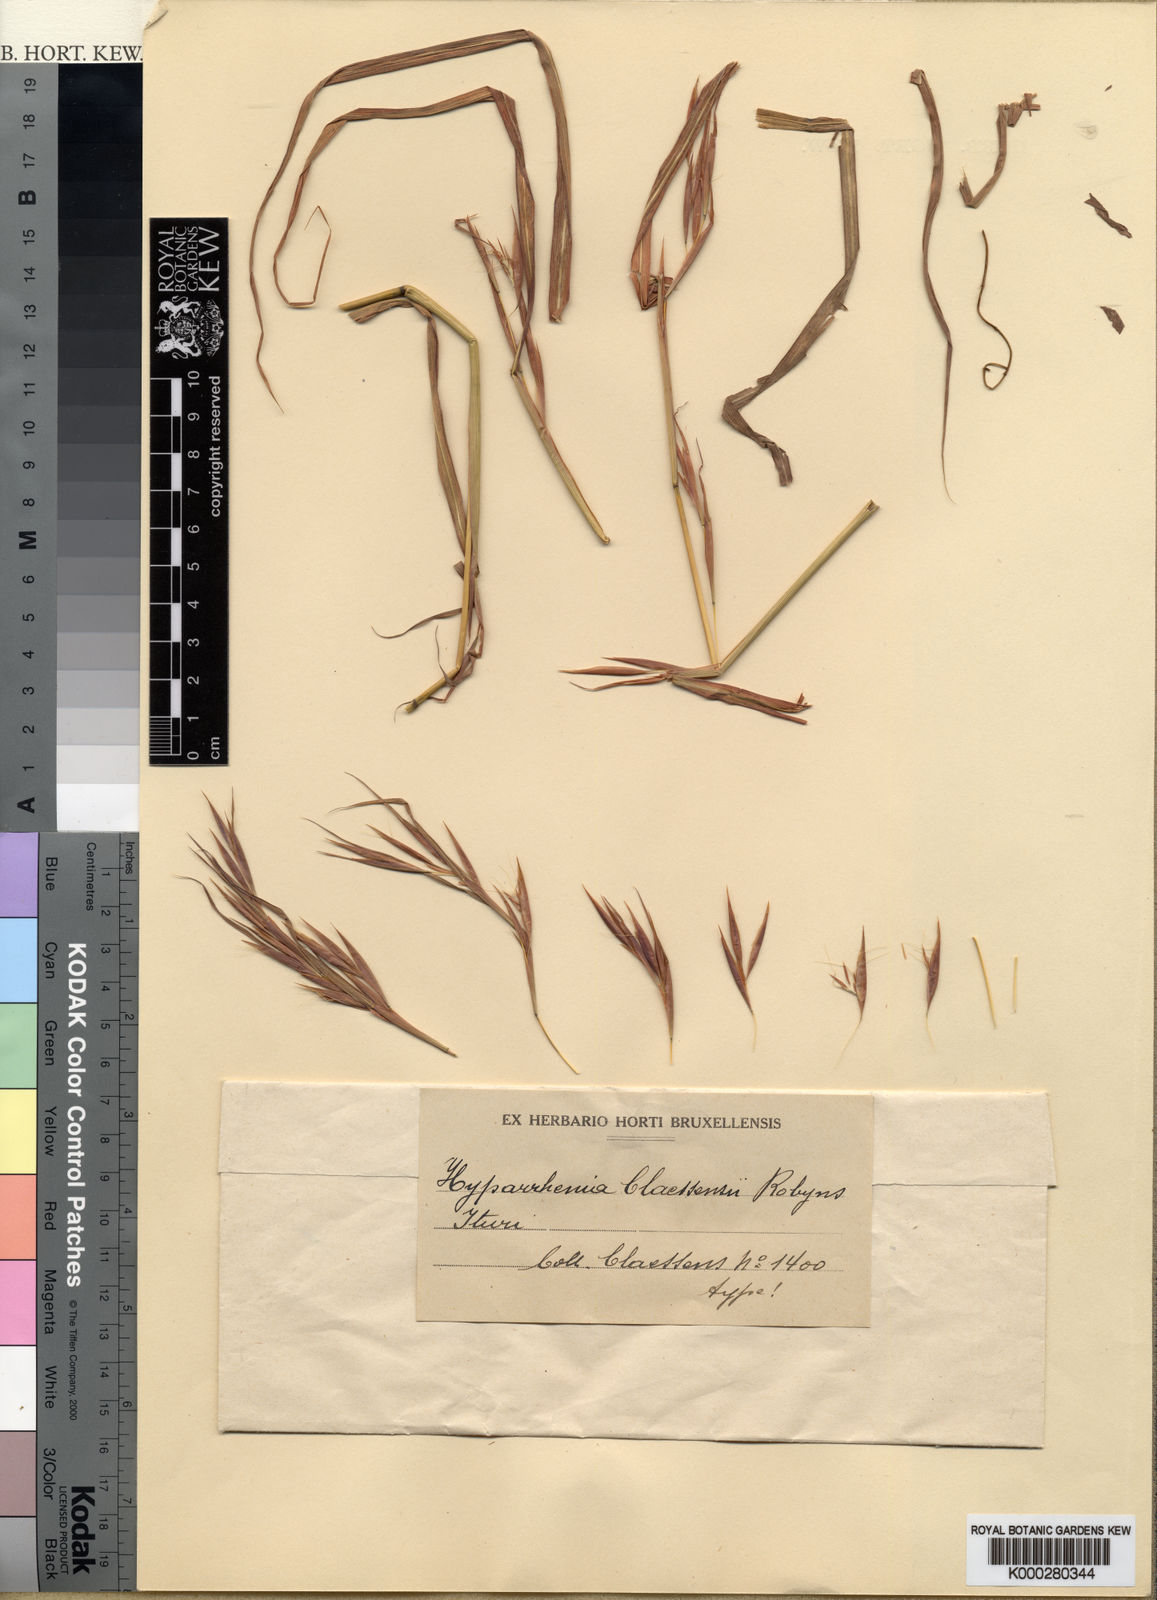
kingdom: Plantae
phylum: Tracheophyta
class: Liliopsida
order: Poales
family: Poaceae
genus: Hyparrhenia
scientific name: Hyparrhenia pilgeriana
